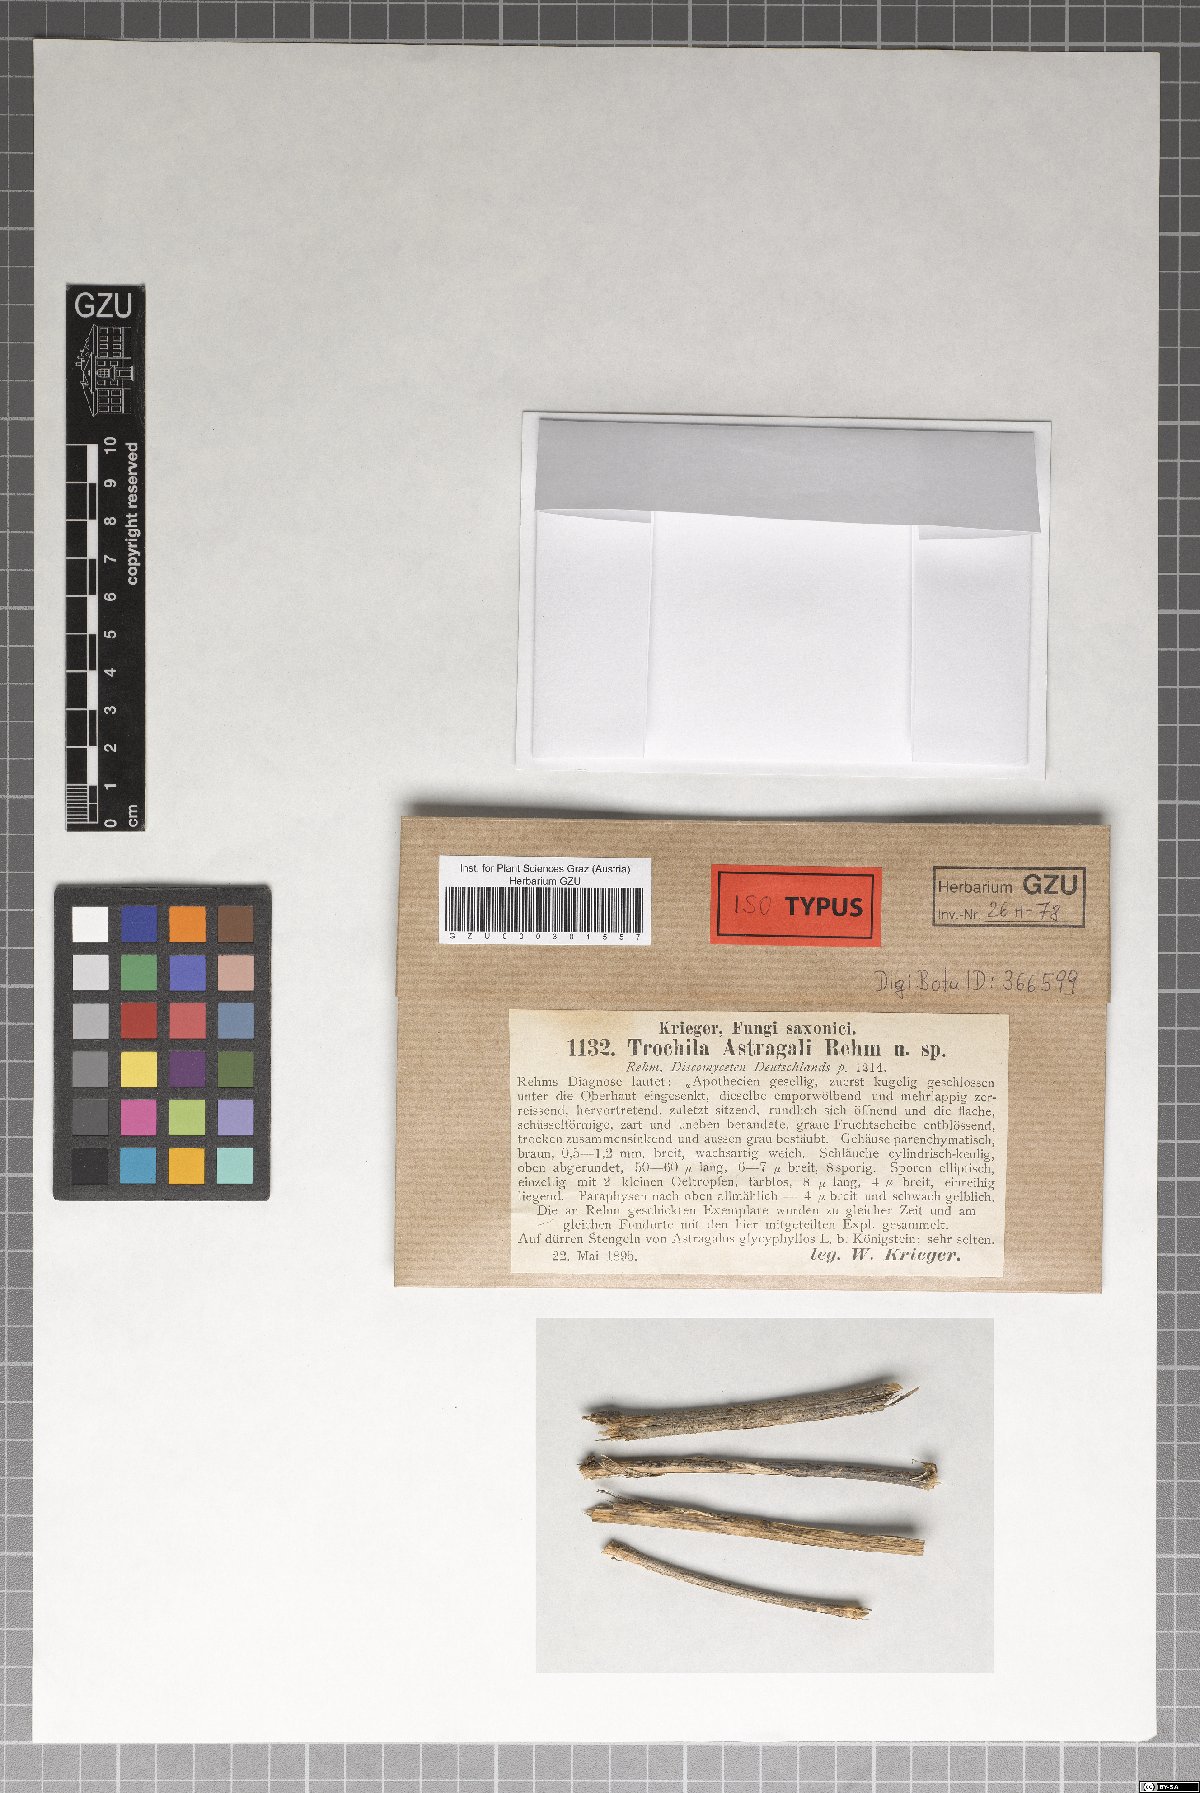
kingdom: Fungi
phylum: Ascomycota
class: Leotiomycetes
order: Helotiales
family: Cenangiaceae
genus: Trochila
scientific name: Trochila astragali
